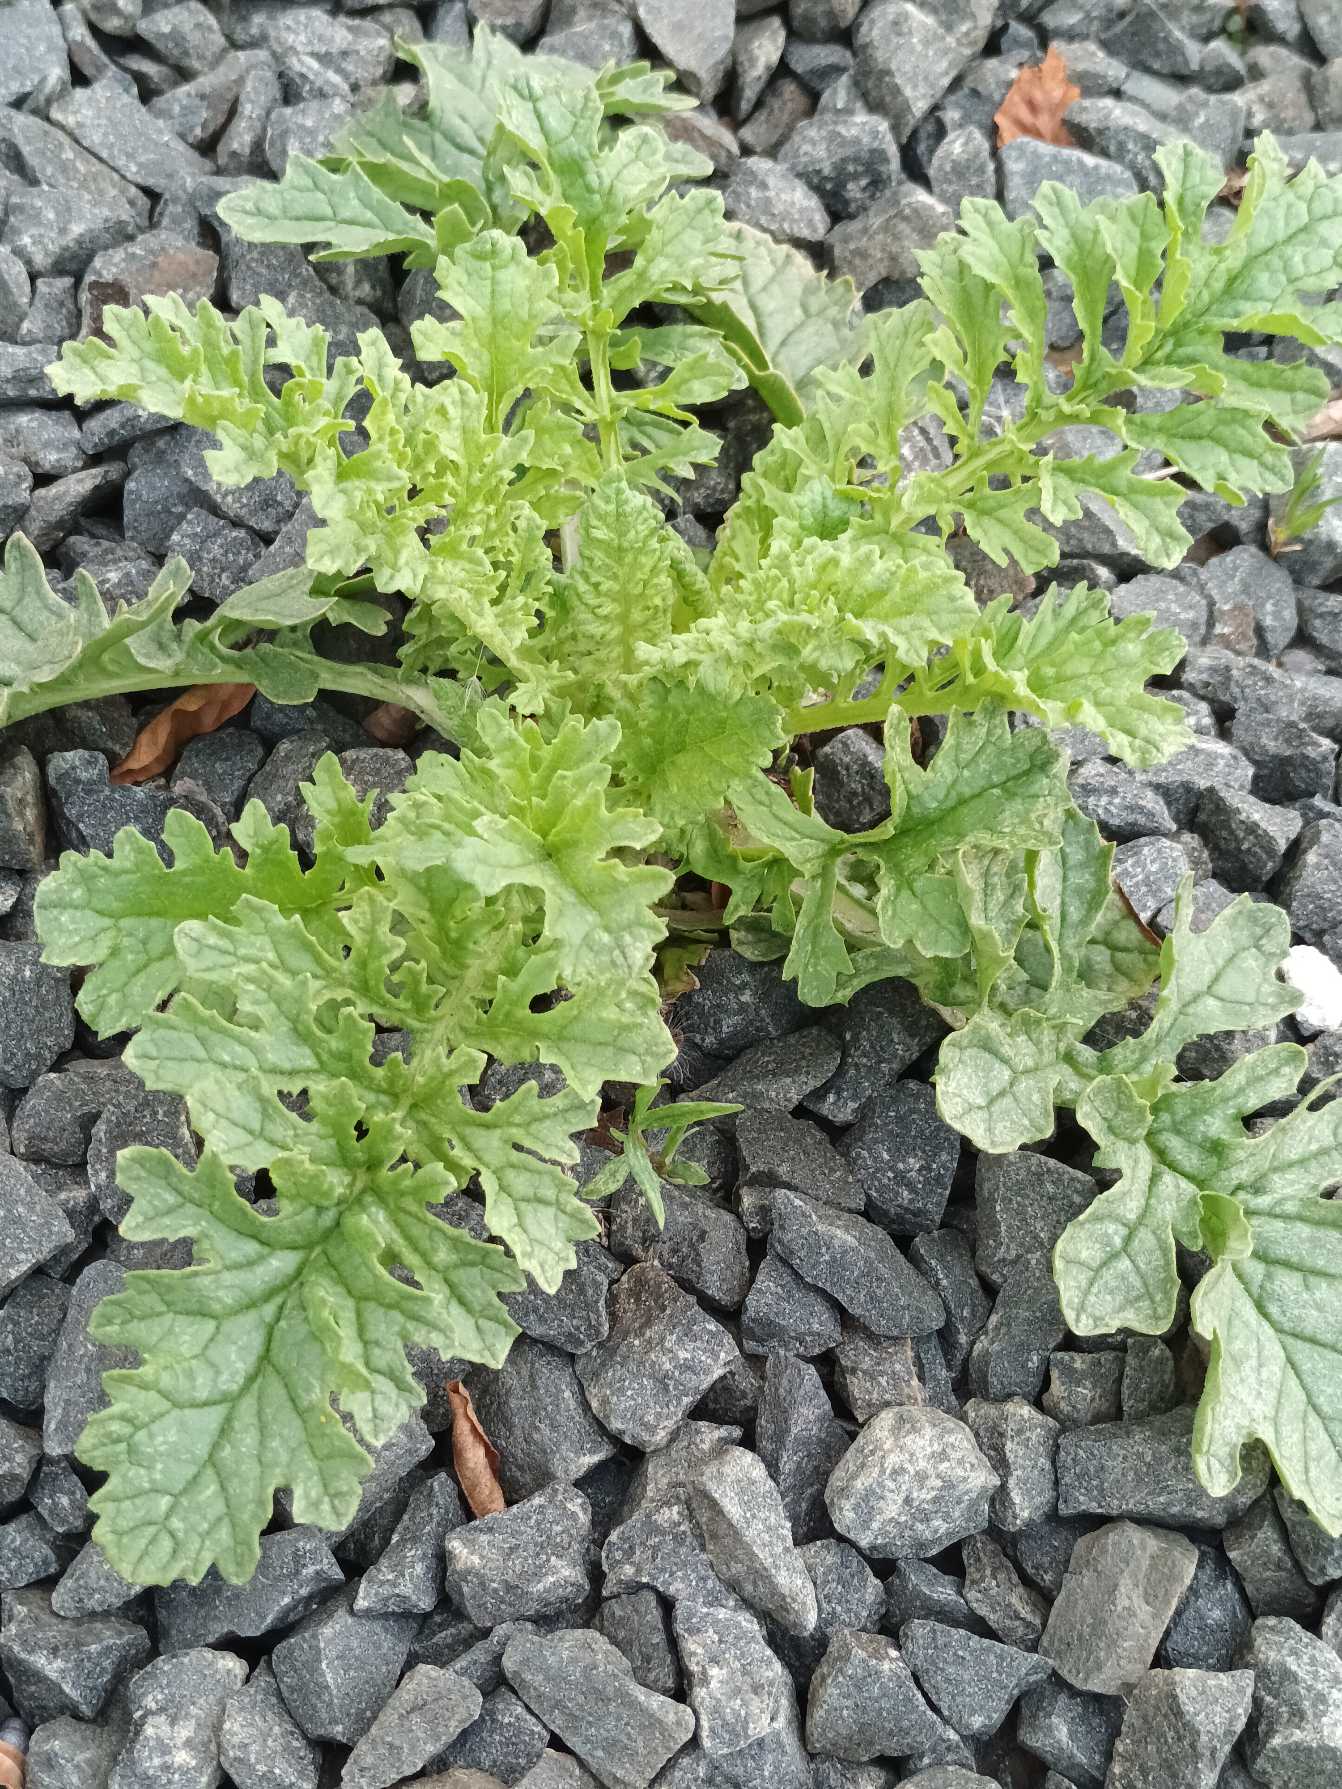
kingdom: Plantae
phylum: Tracheophyta
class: Magnoliopsida
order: Asterales
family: Asteraceae
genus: Jacobaea
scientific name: Jacobaea vulgaris
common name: Eng-brandbæger
